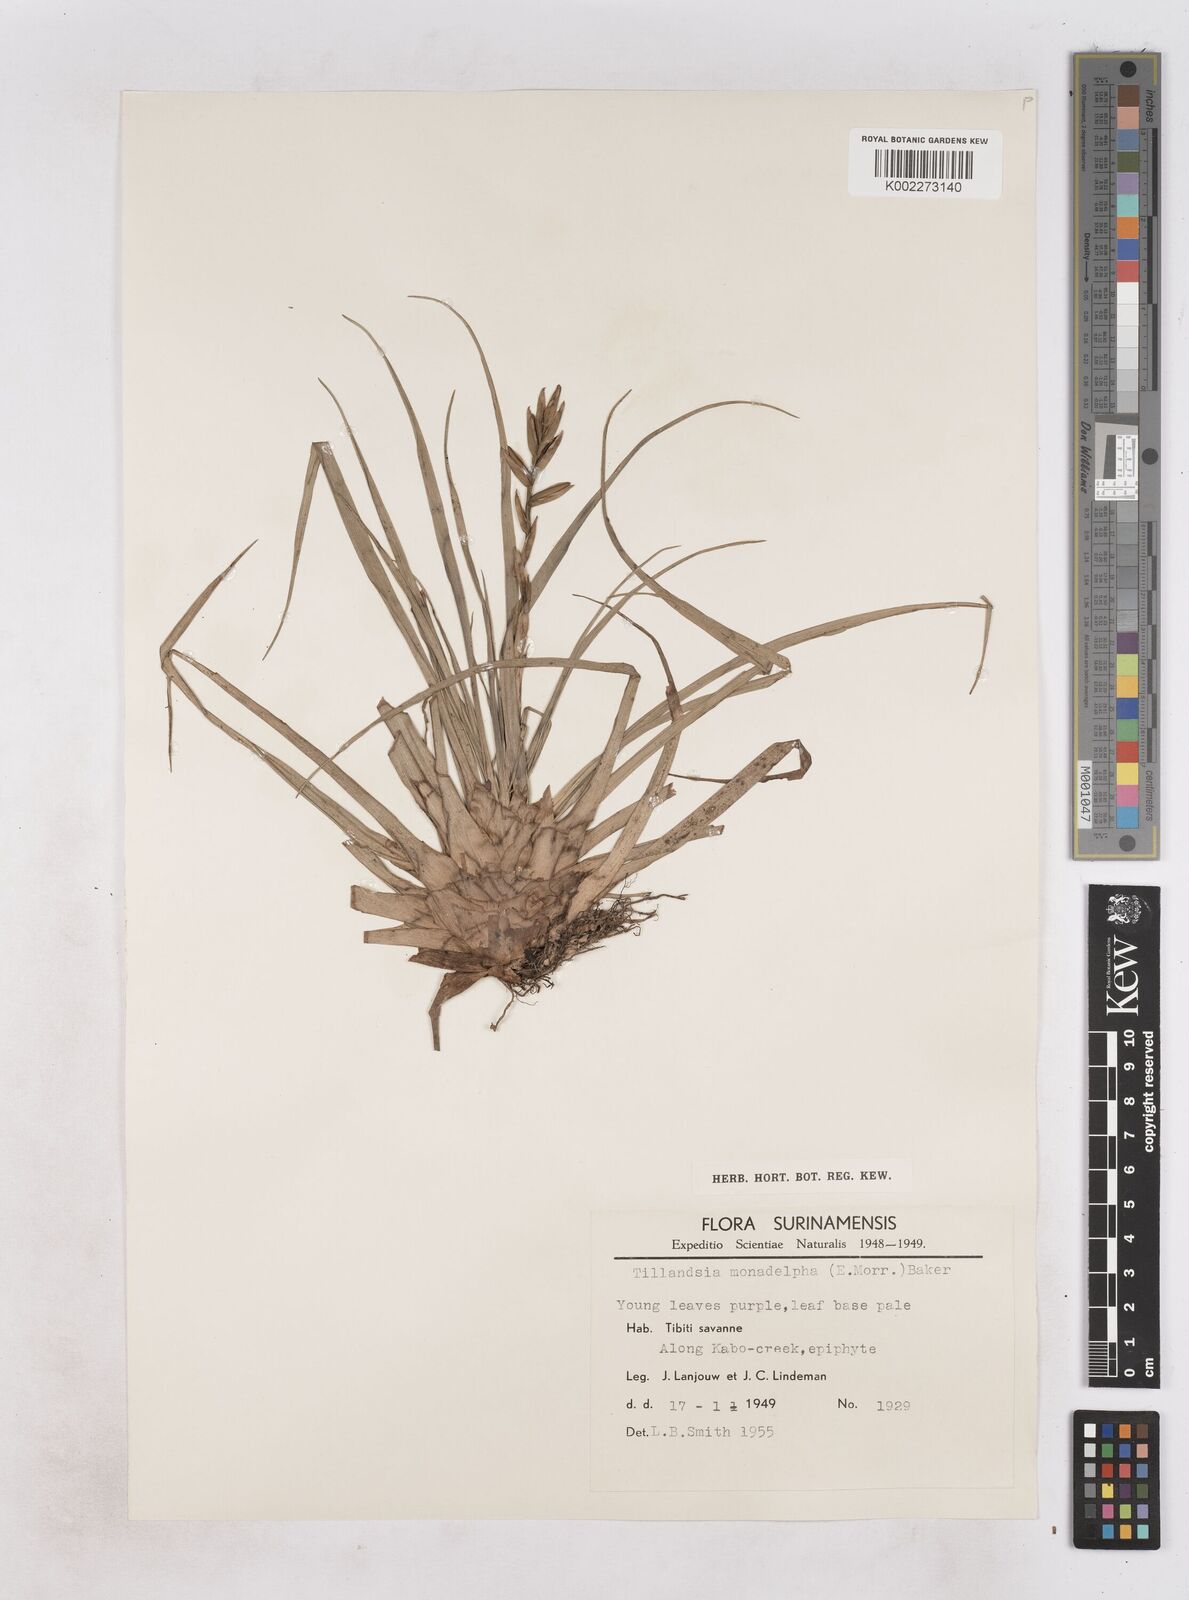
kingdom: Plantae
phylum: Tracheophyta
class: Liliopsida
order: Poales
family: Bromeliaceae
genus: Lemeltonia
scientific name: Lemeltonia monadelpha
